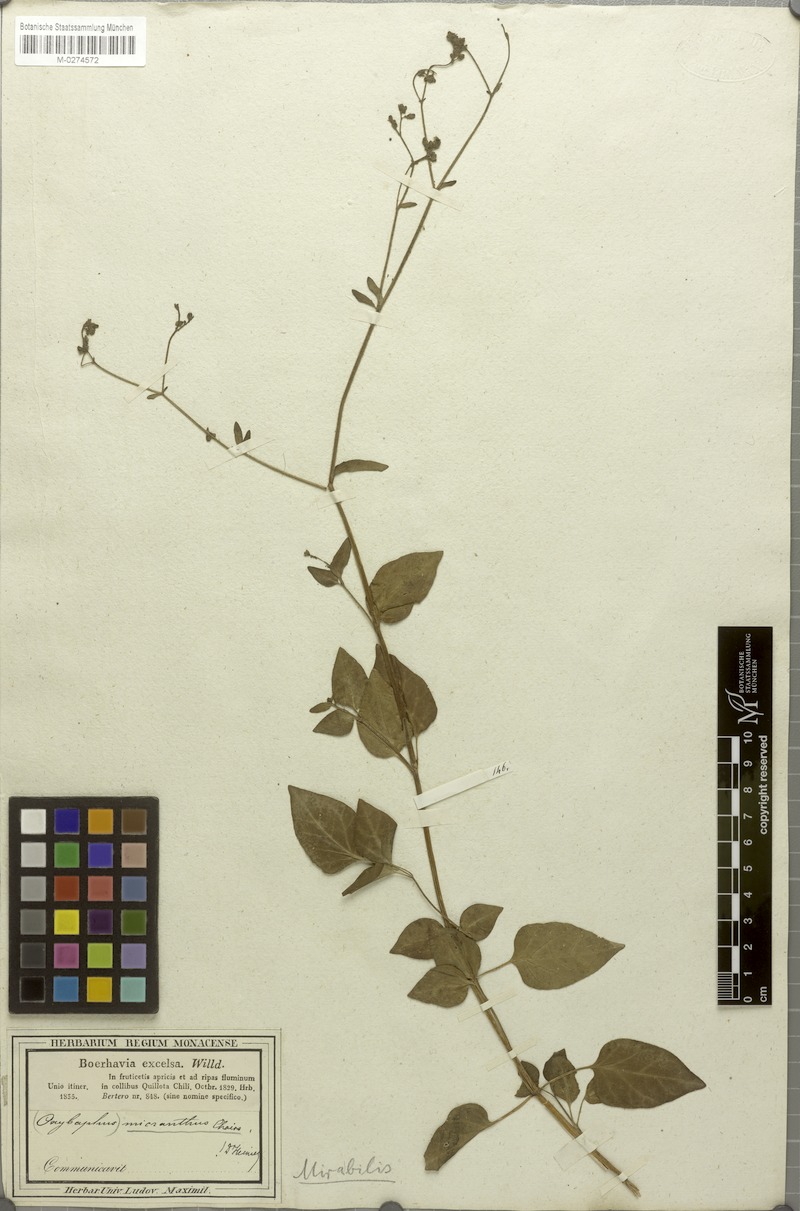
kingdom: Plantae
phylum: Tracheophyta
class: Magnoliopsida
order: Caryophyllales
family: Nyctaginaceae
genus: Mirabilis
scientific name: Mirabilis prostrata
